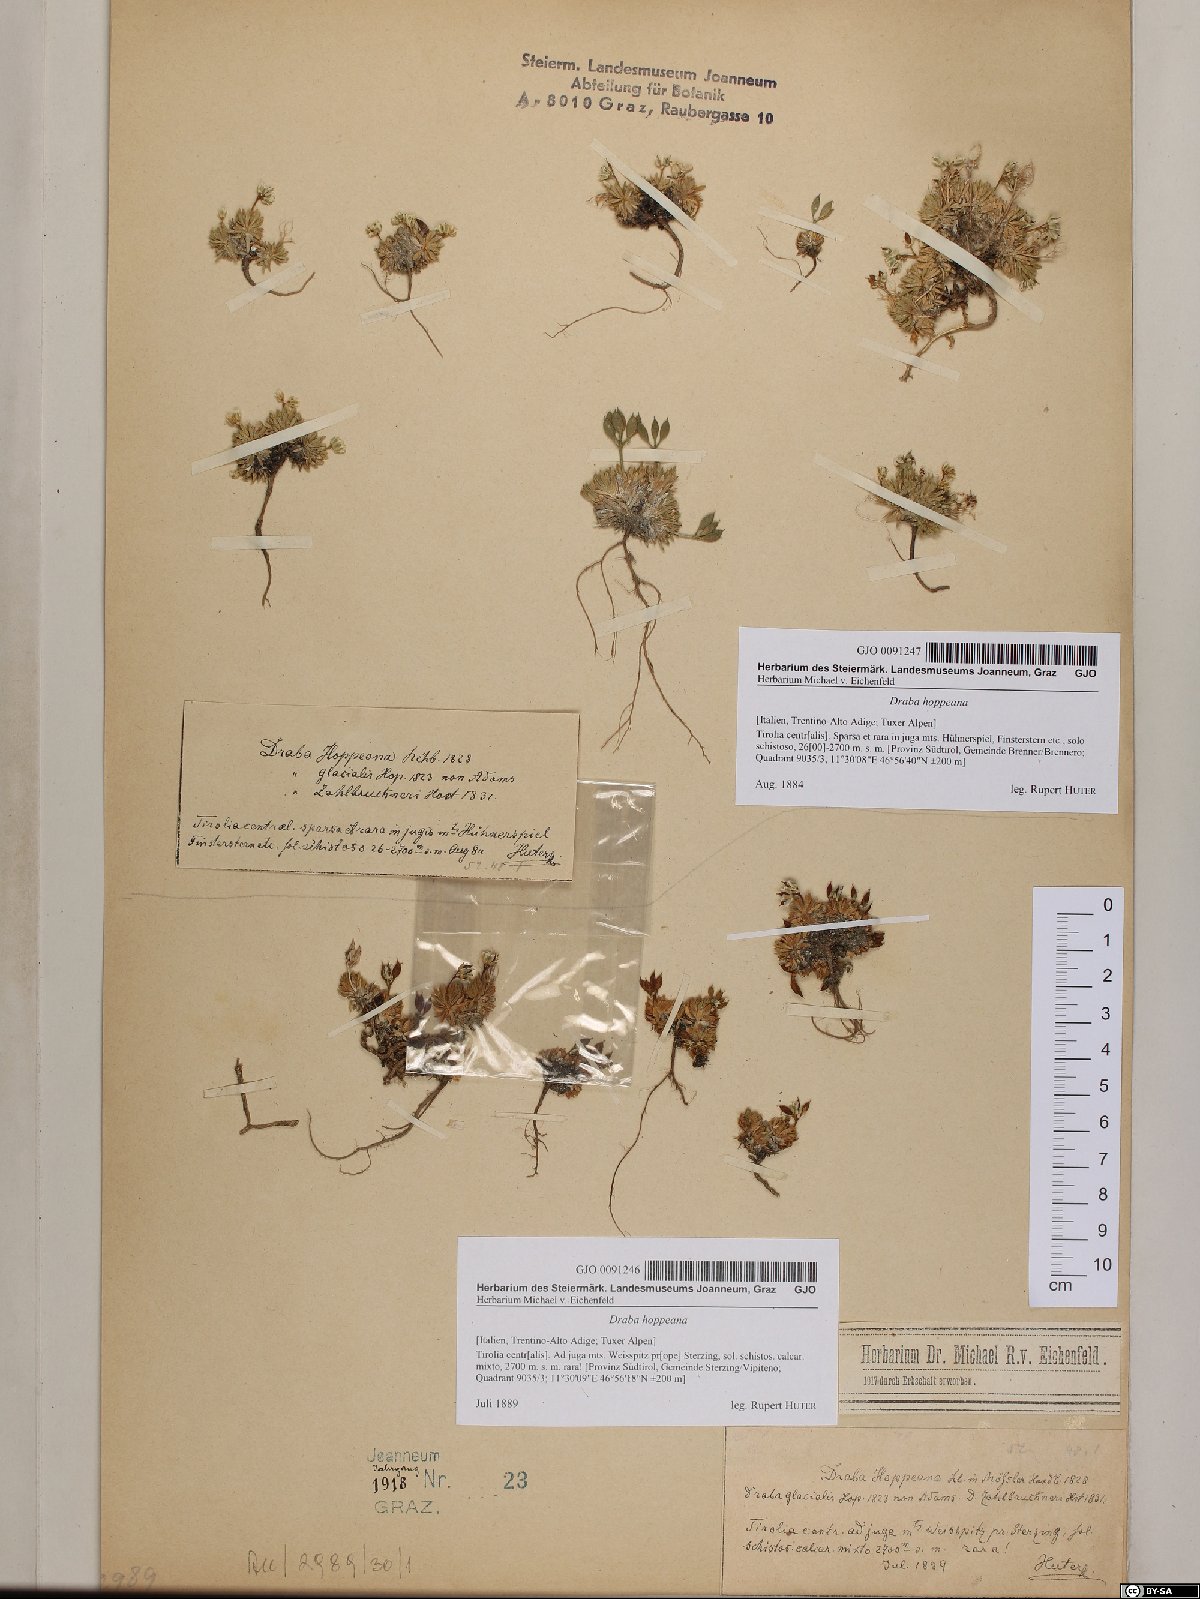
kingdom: Plantae
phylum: Tracheophyta
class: Magnoliopsida
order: Brassicales
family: Brassicaceae
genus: Draba
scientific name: Draba hoppeana
